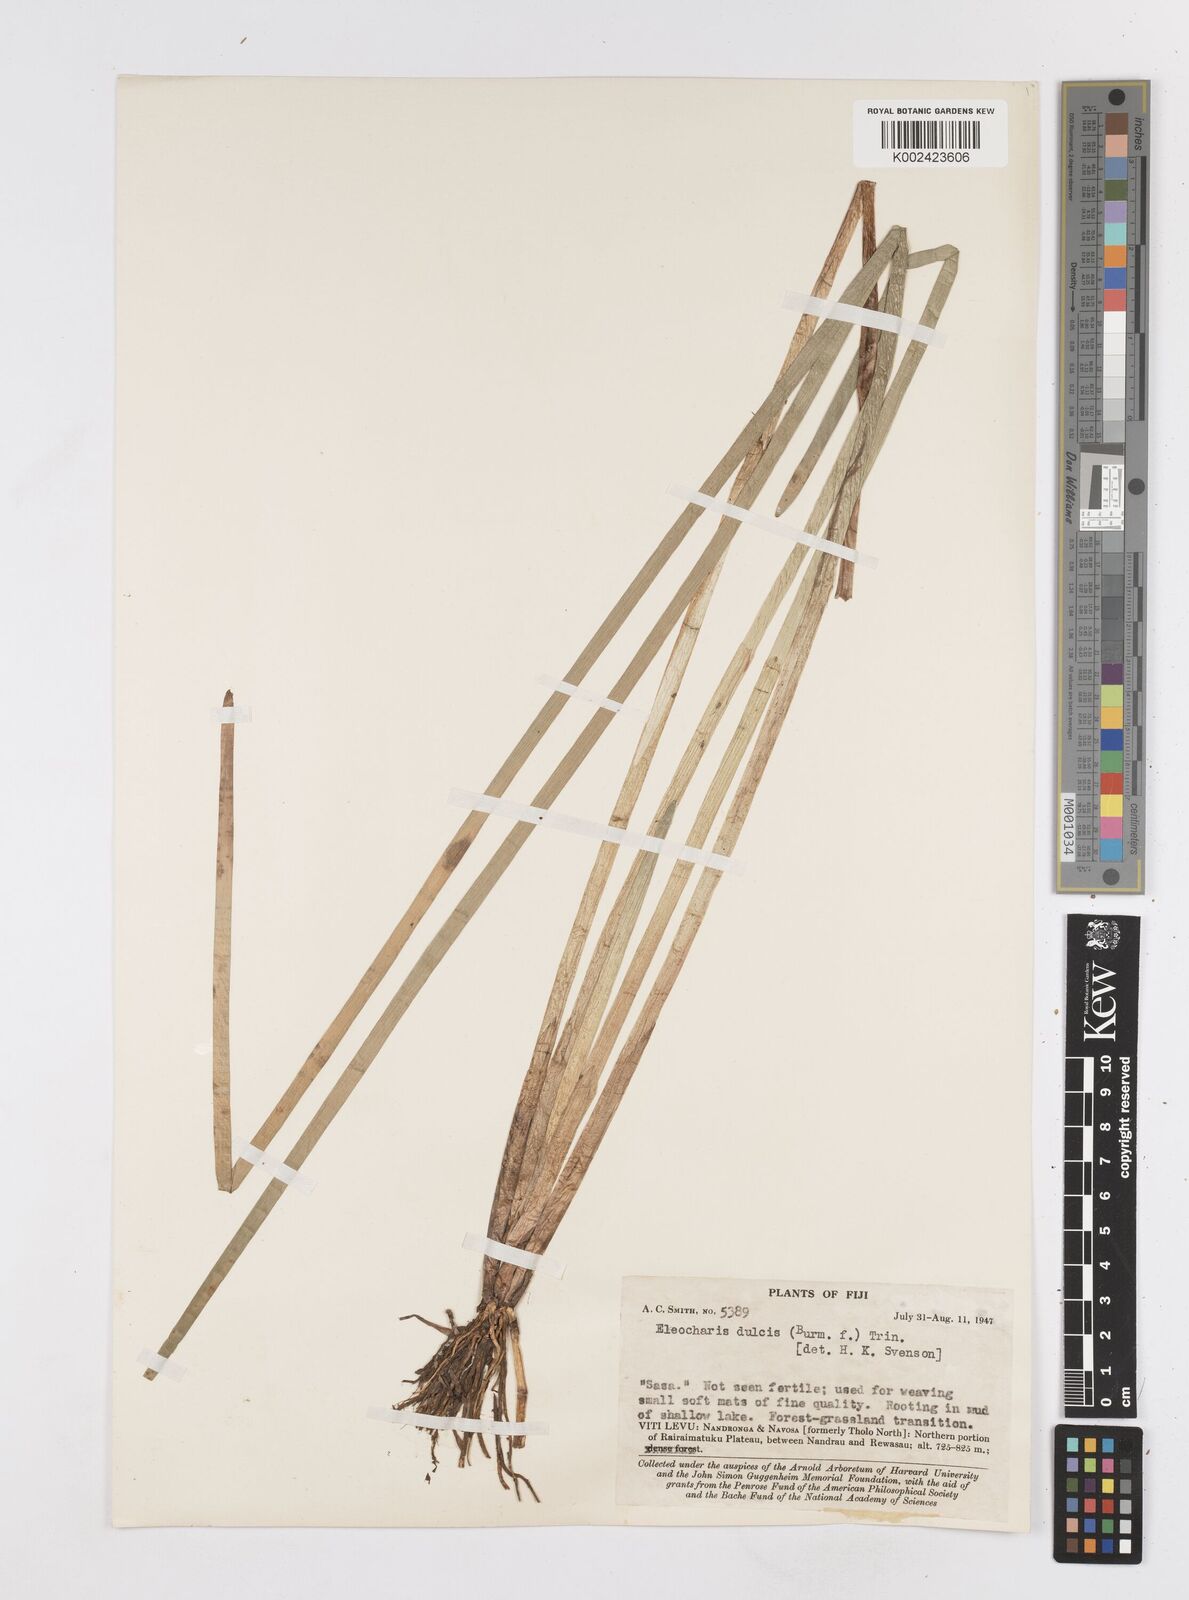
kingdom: Plantae
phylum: Tracheophyta
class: Liliopsida
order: Poales
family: Cyperaceae
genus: Eleocharis
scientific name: Eleocharis dulcis
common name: Chinese water chestnut
